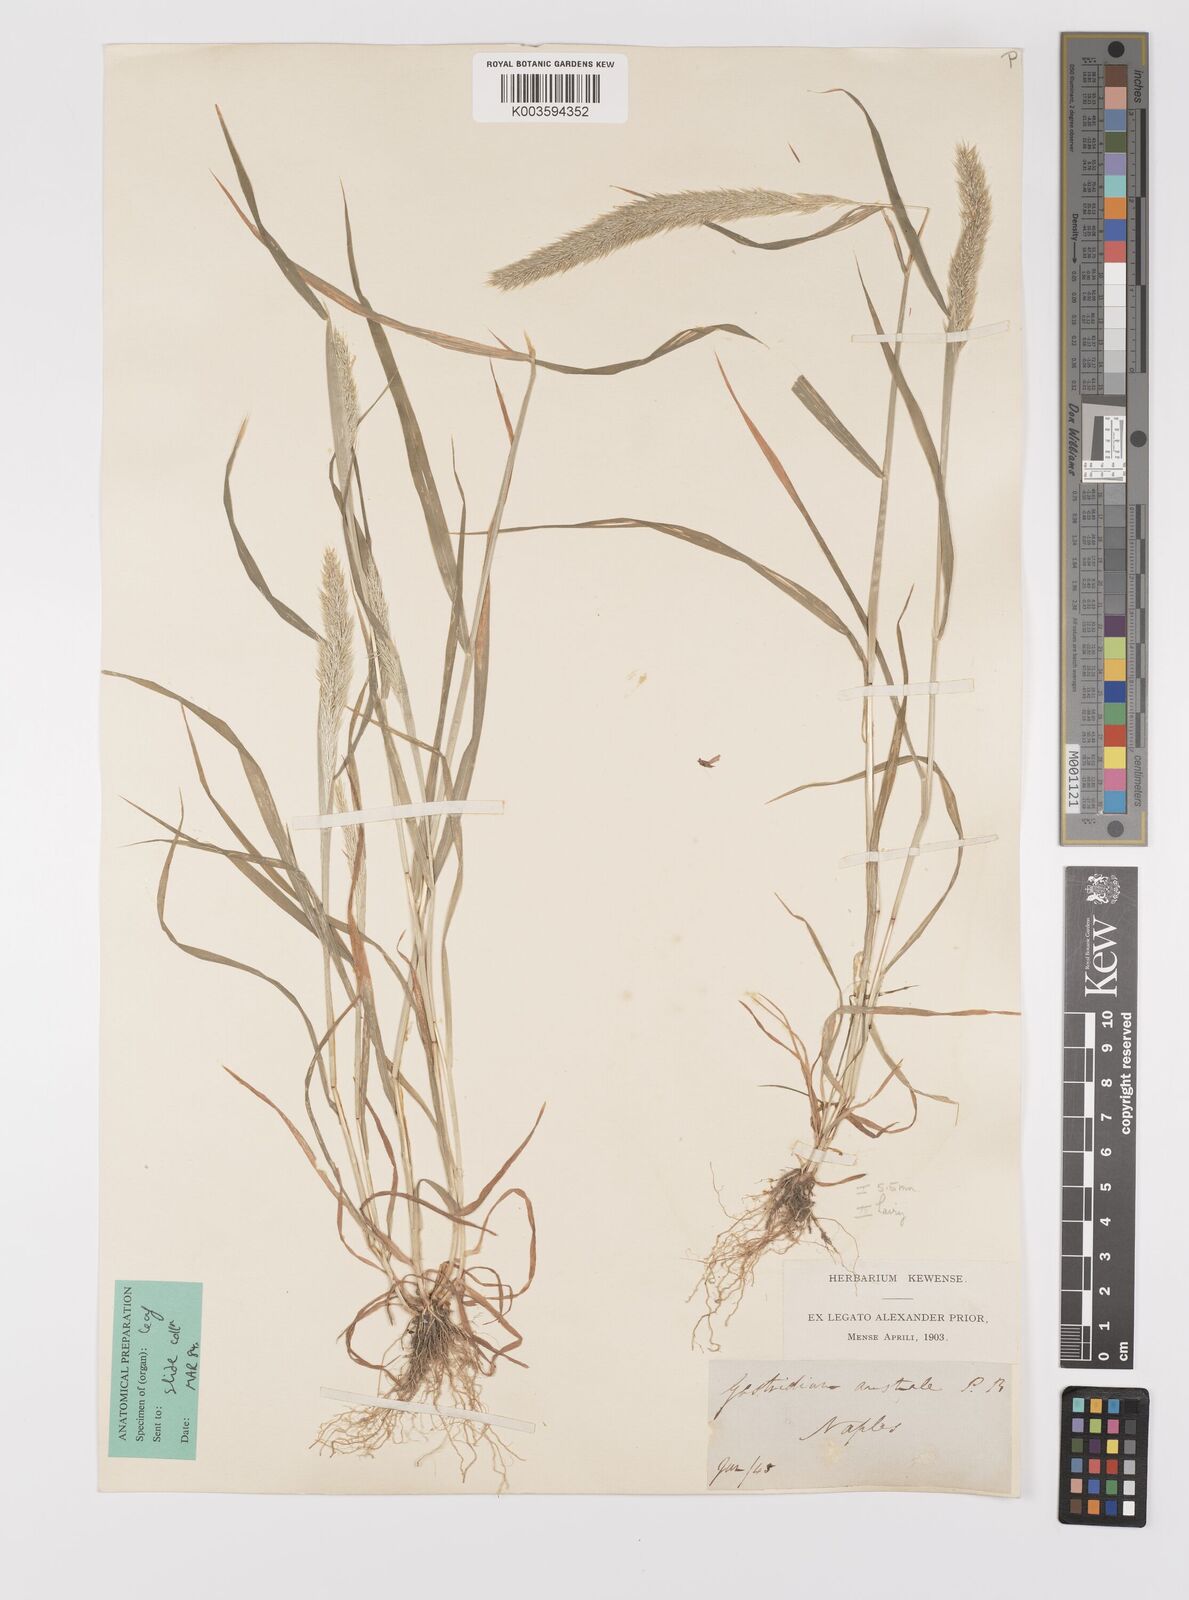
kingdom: Plantae
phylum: Tracheophyta
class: Liliopsida
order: Poales
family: Poaceae
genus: Gastridium
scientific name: Gastridium phleoides
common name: Nit grass
